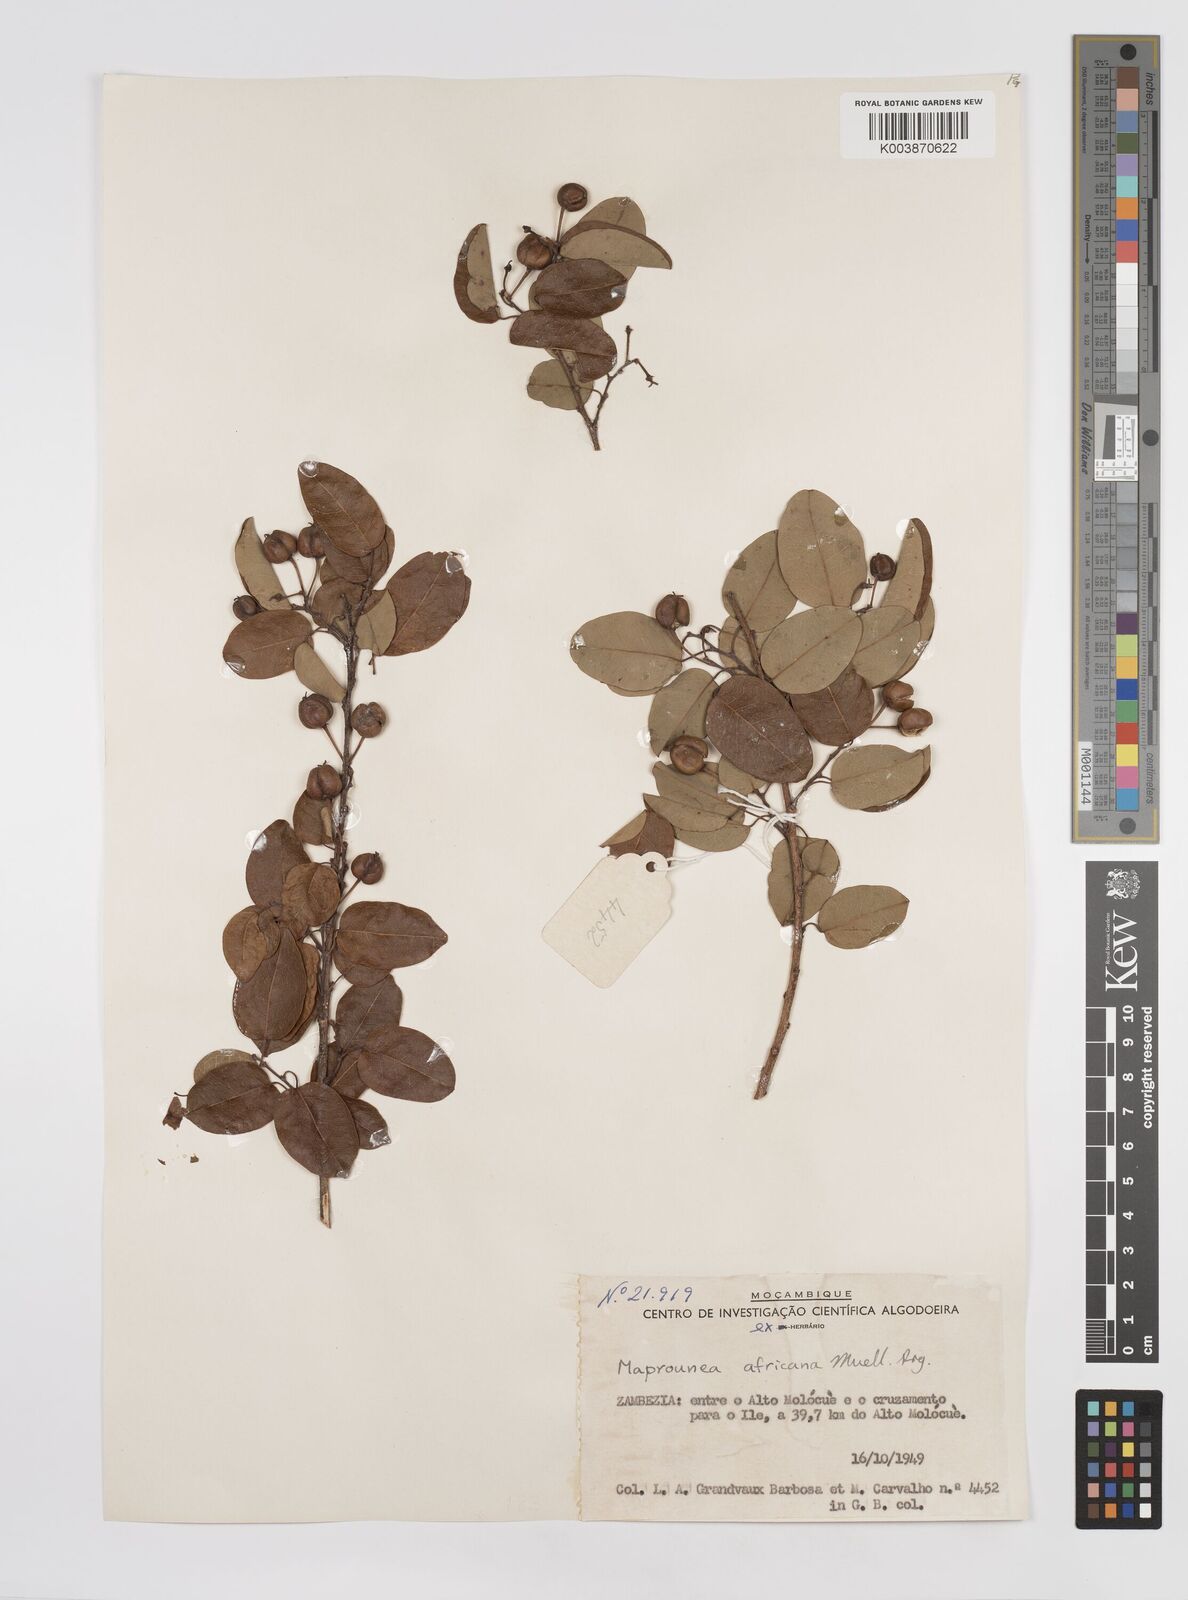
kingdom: Plantae
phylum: Tracheophyta
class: Magnoliopsida
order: Malpighiales
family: Euphorbiaceae
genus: Maprounea
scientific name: Maprounea africana
